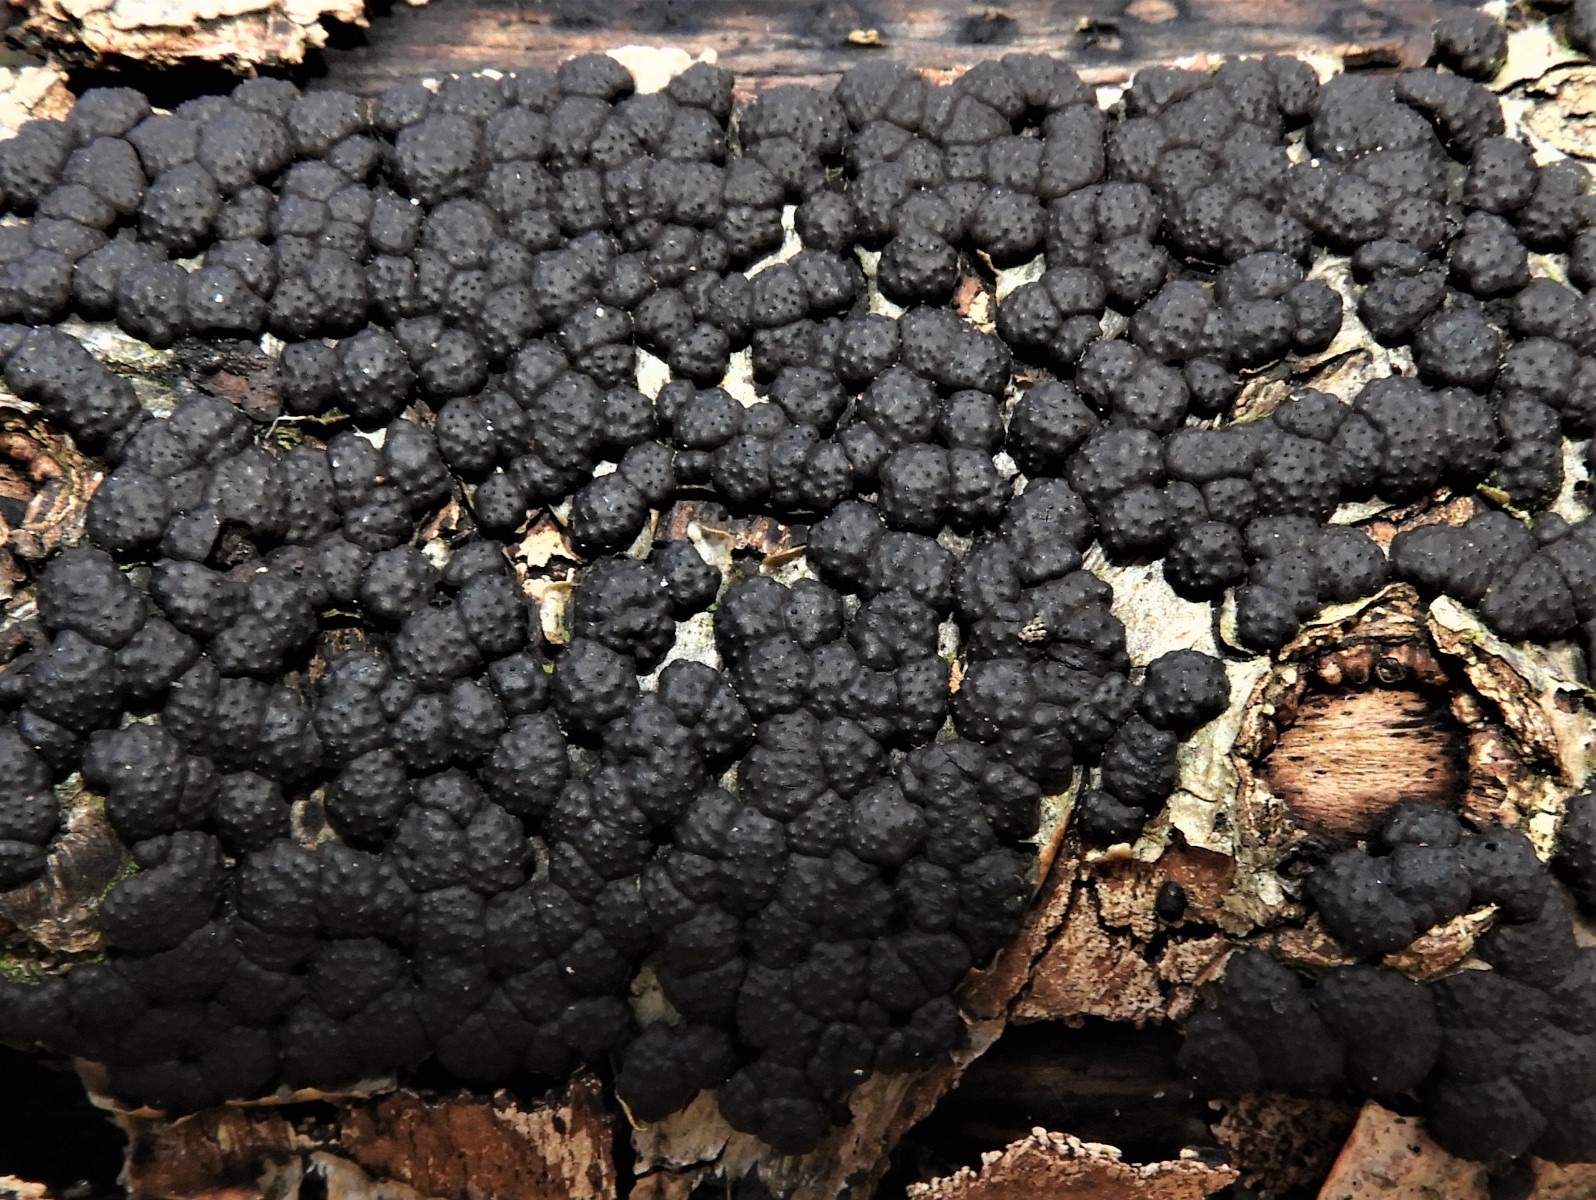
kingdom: Fungi
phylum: Ascomycota
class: Sordariomycetes
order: Xylariales
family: Hypoxylaceae
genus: Jackrogersella
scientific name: Jackrogersella cohaerens
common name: sammenflydende kulbær
